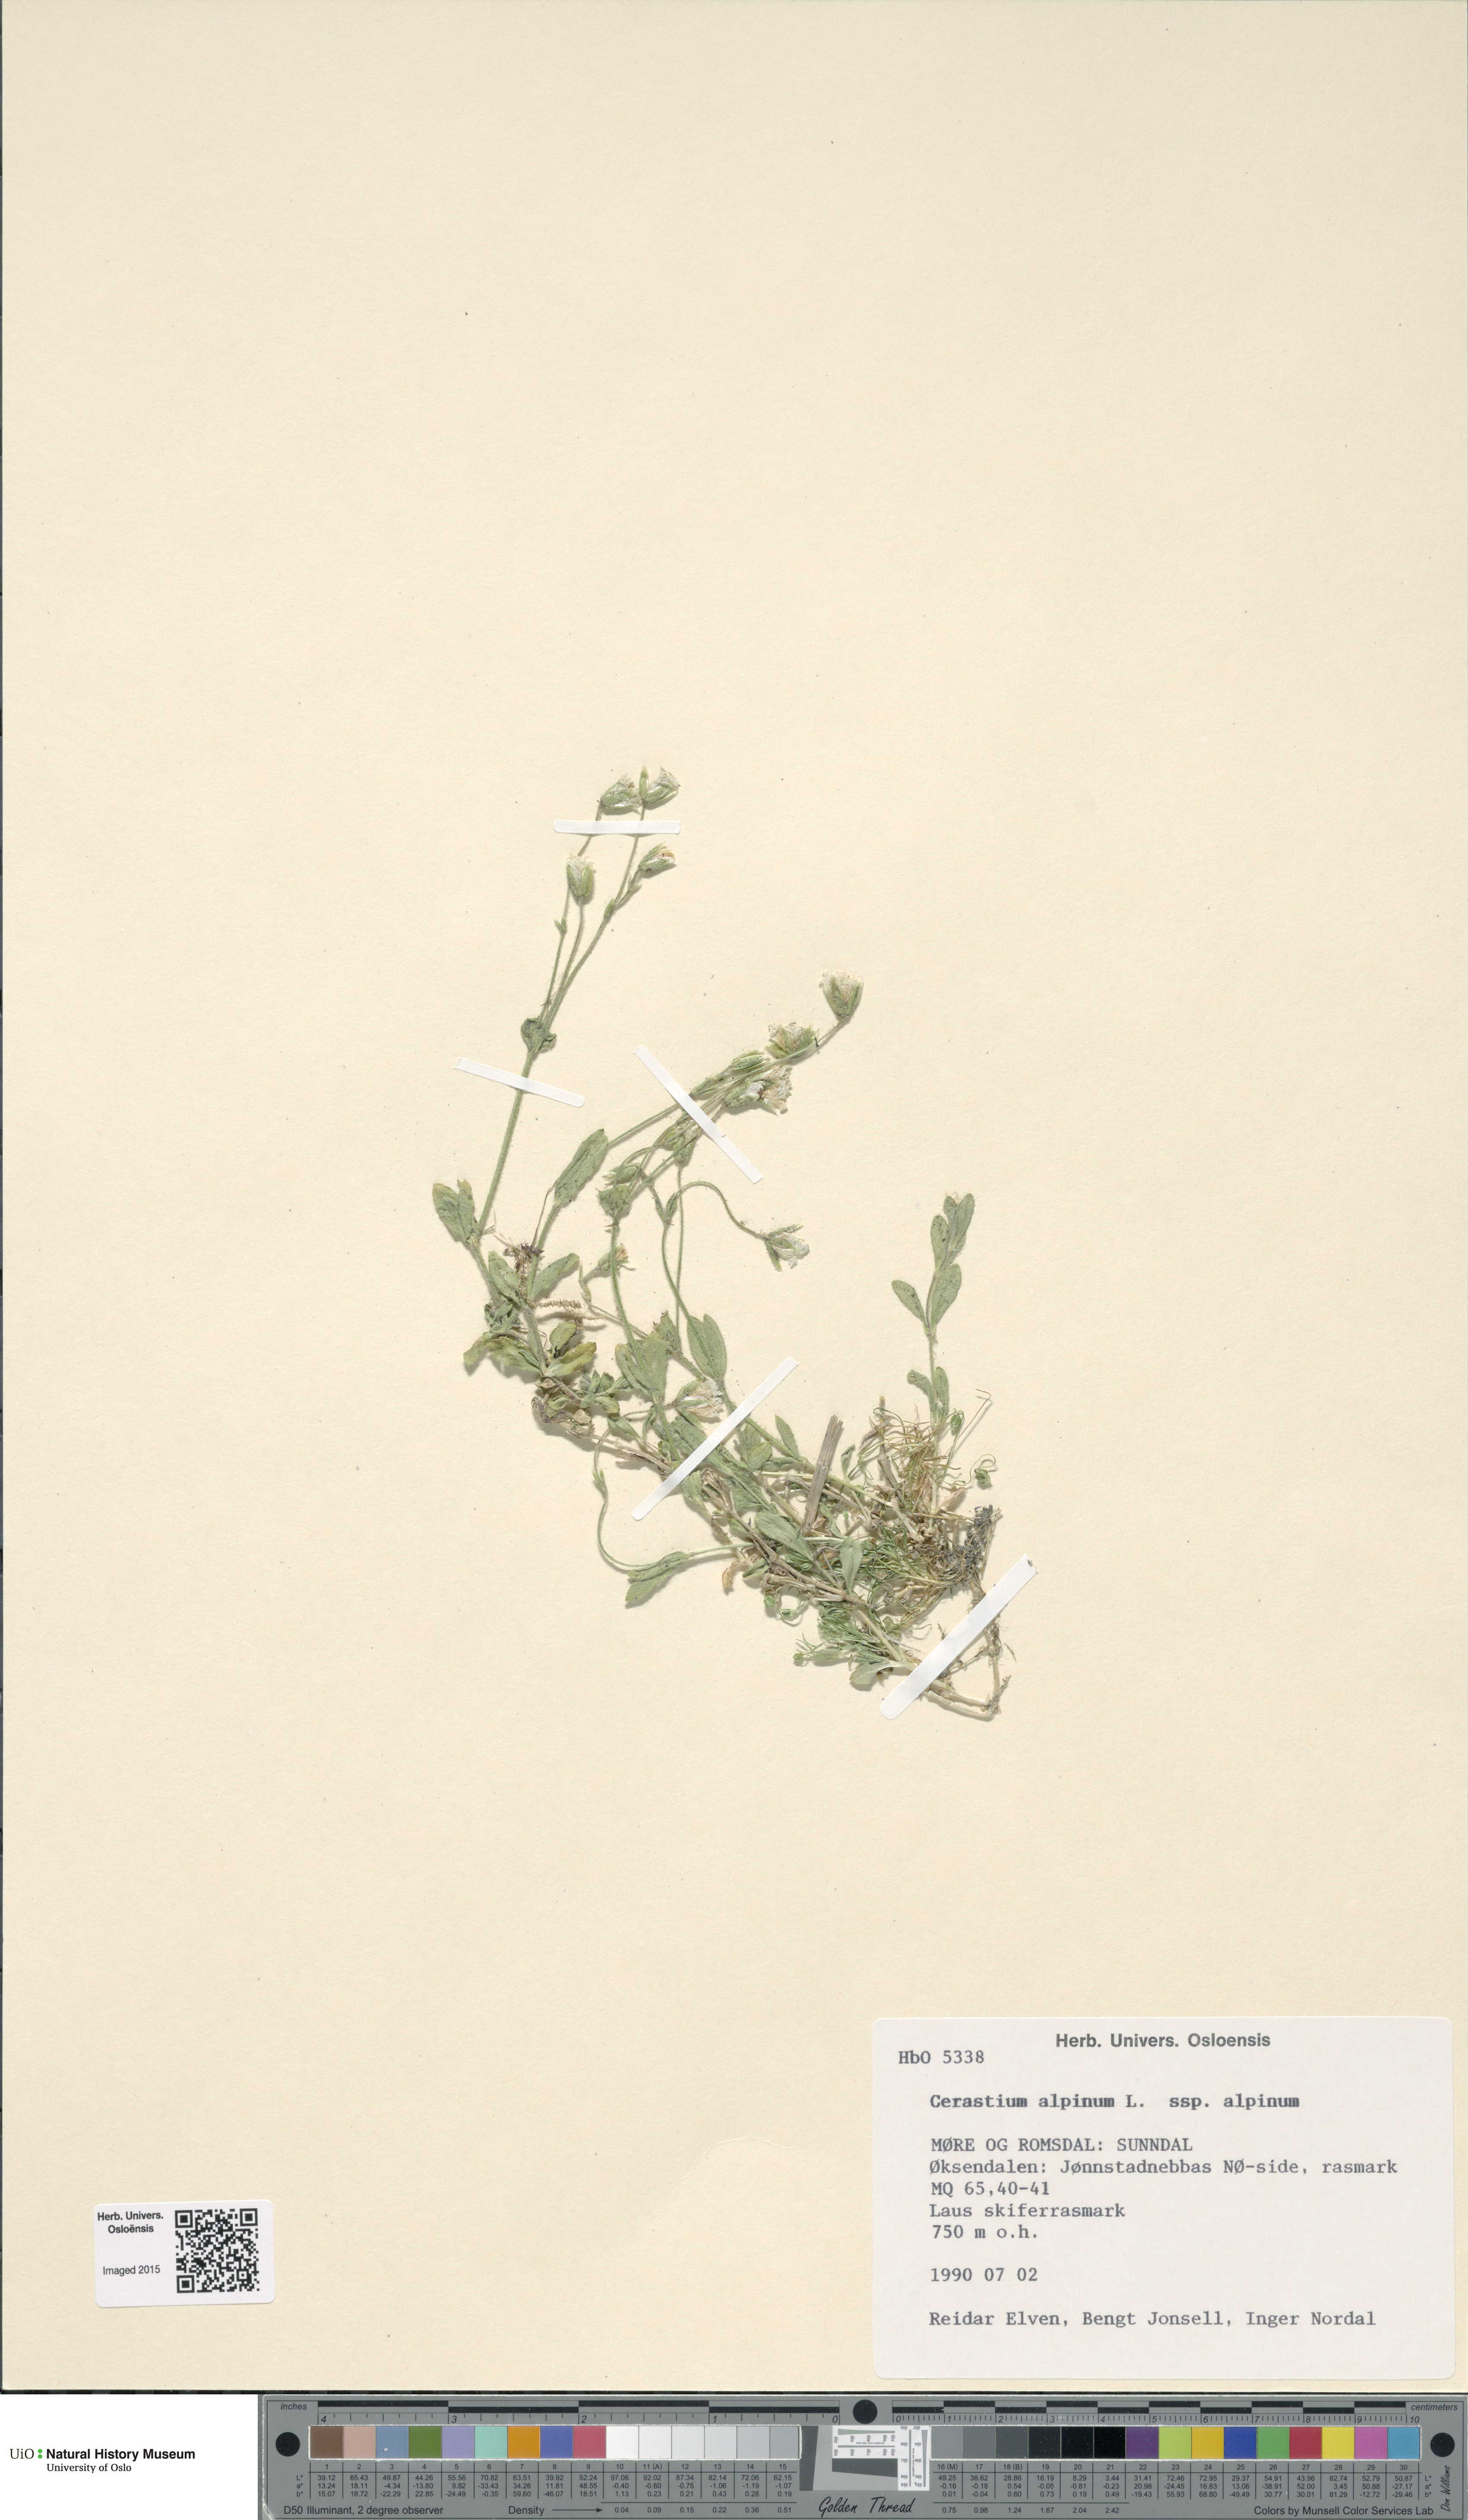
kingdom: Plantae
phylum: Tracheophyta
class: Magnoliopsida
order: Caryophyllales
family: Caryophyllaceae
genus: Cerastium
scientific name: Cerastium alpinum
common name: Alpine mouse-ear
